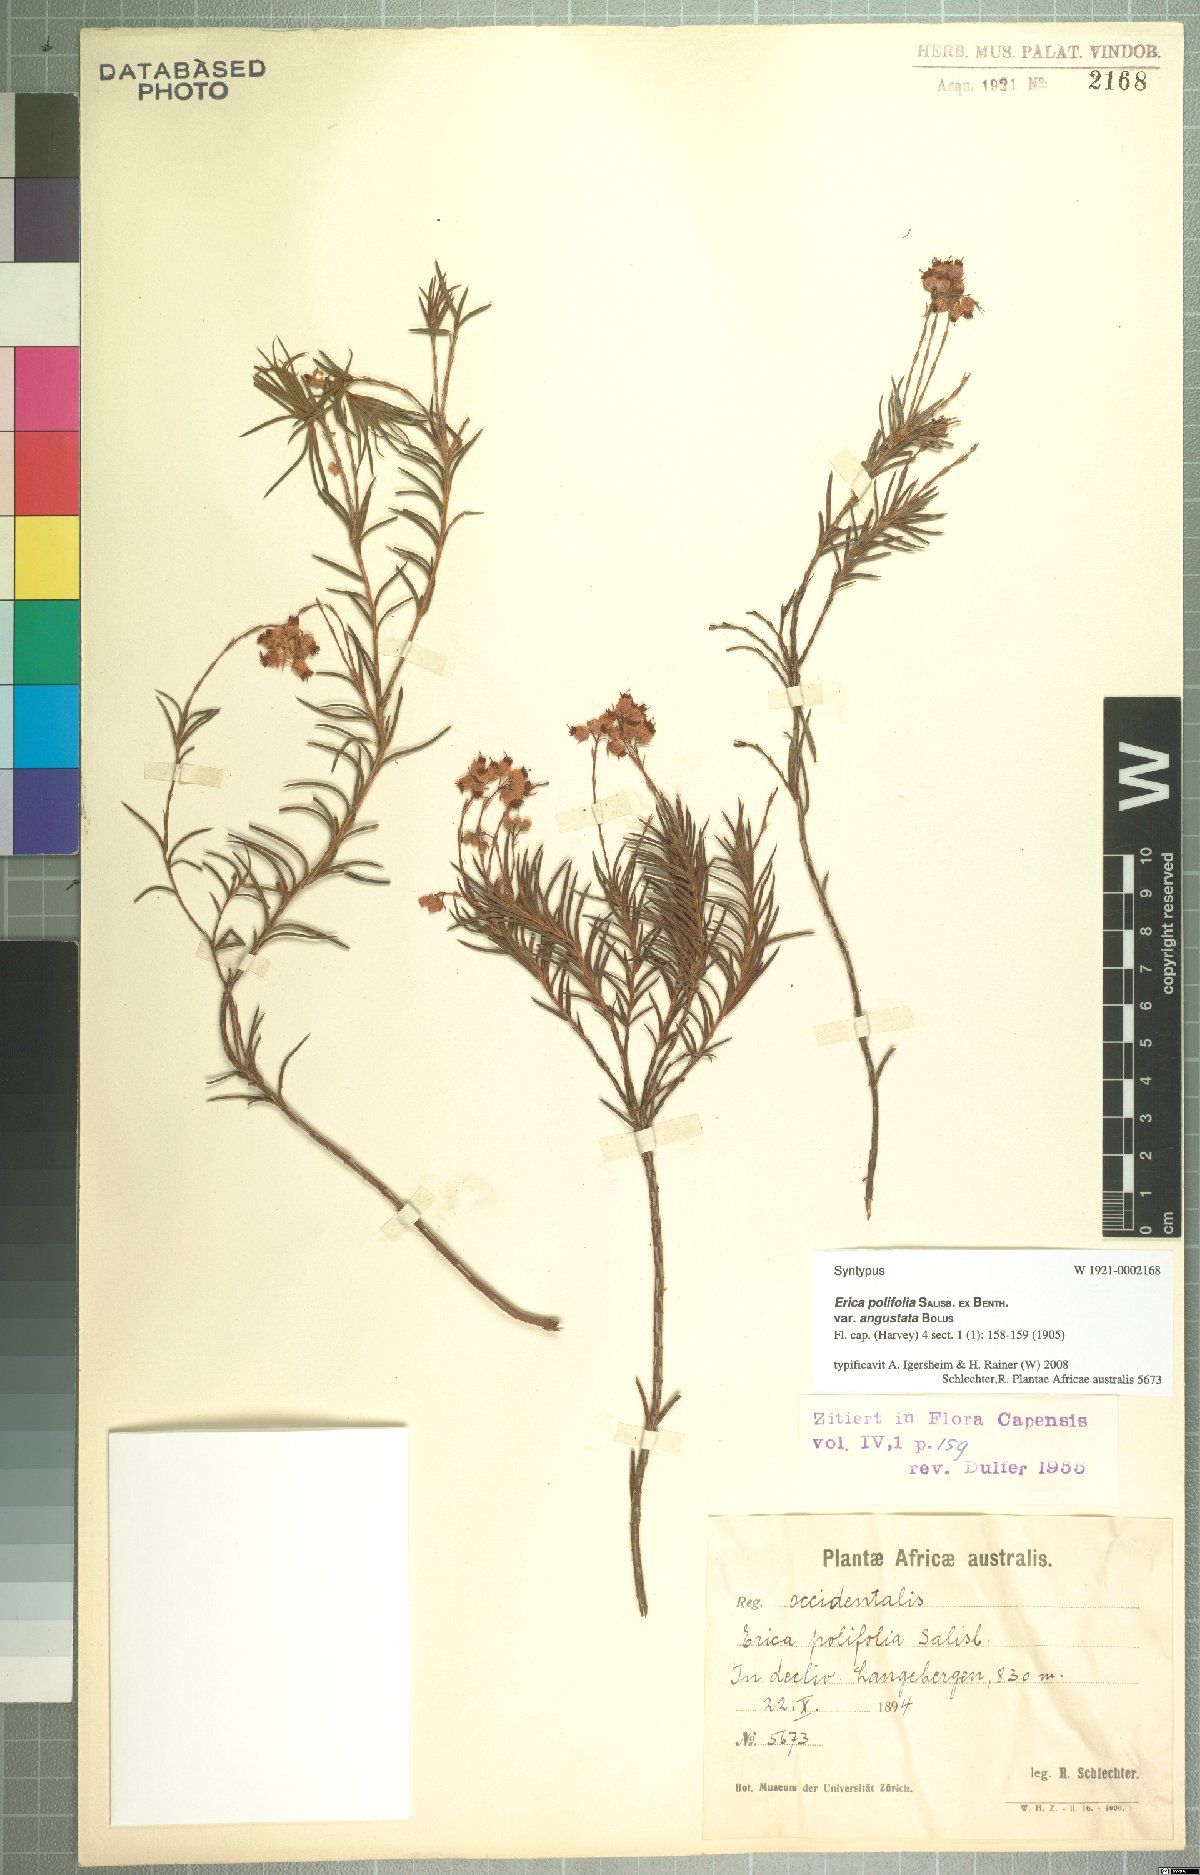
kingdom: Plantae
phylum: Tracheophyta
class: Magnoliopsida
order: Ericales
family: Ericaceae
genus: Erica
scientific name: Erica polifolia
